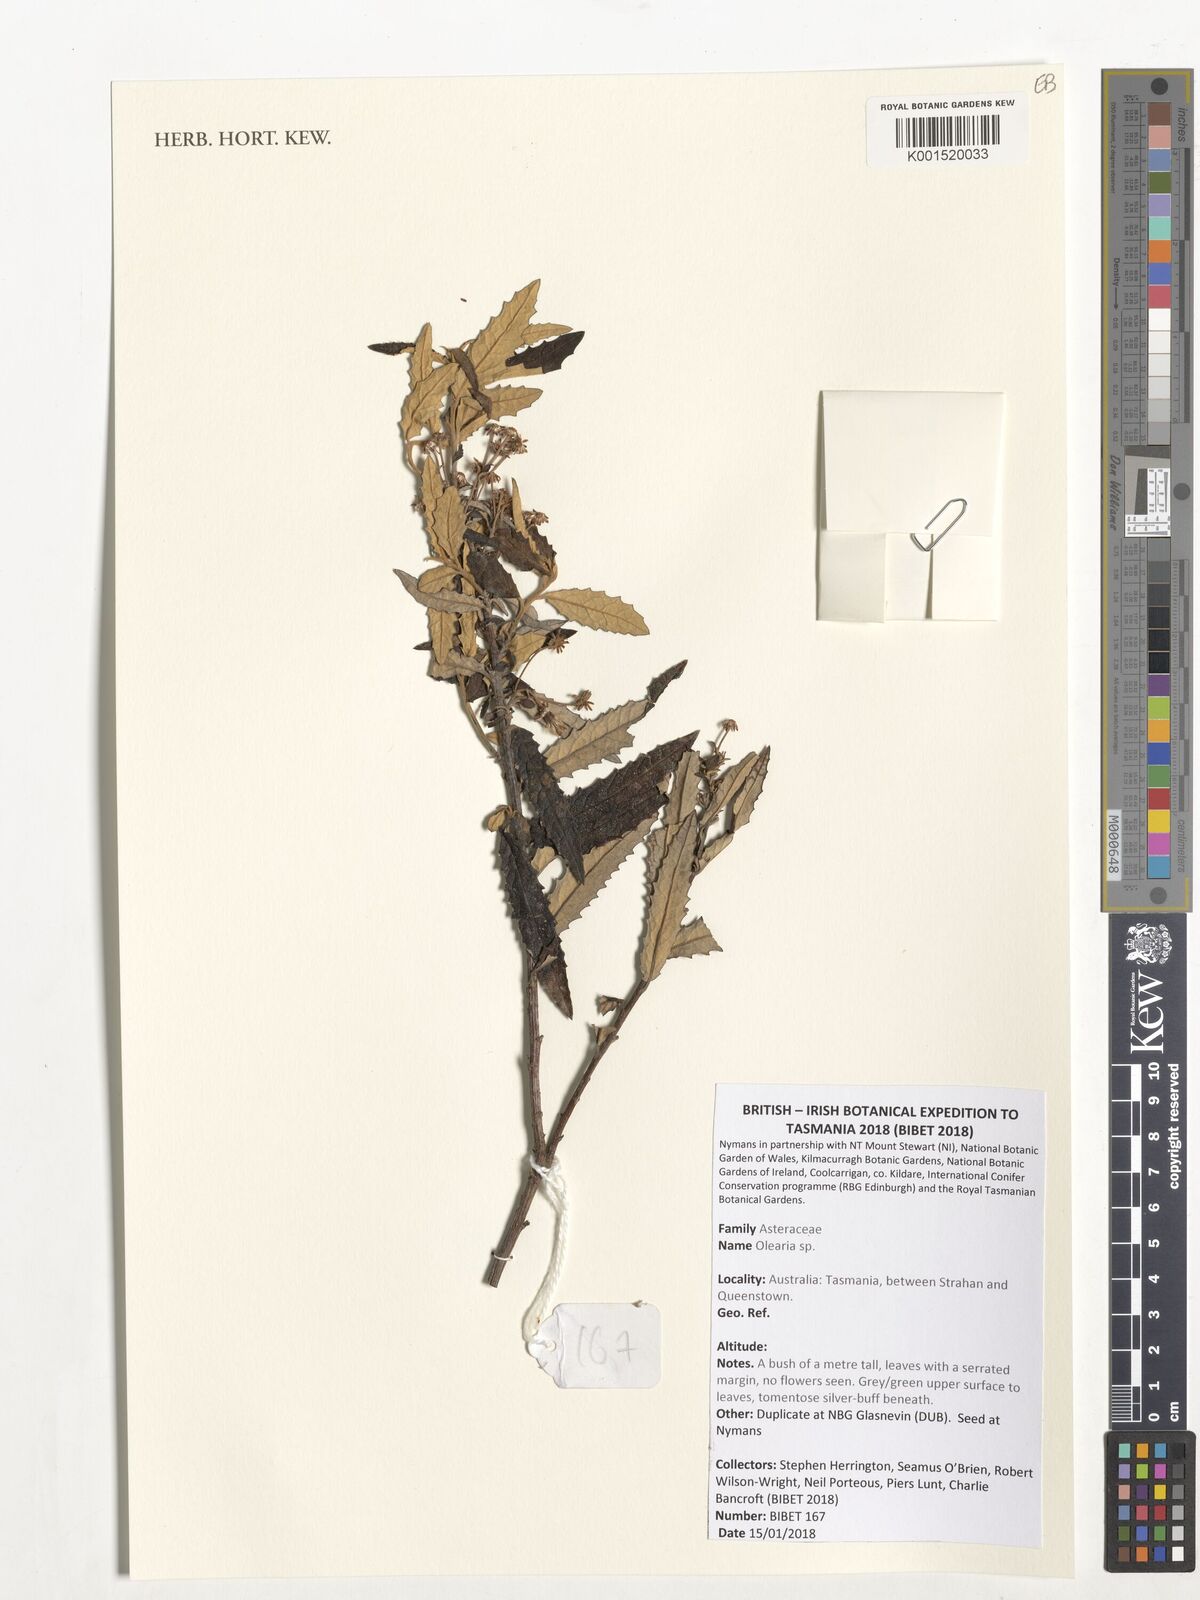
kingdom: Plantae
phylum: Tracheophyta
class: Magnoliopsida
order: Asterales
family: Asteraceae
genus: Olearia
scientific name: Olearia
